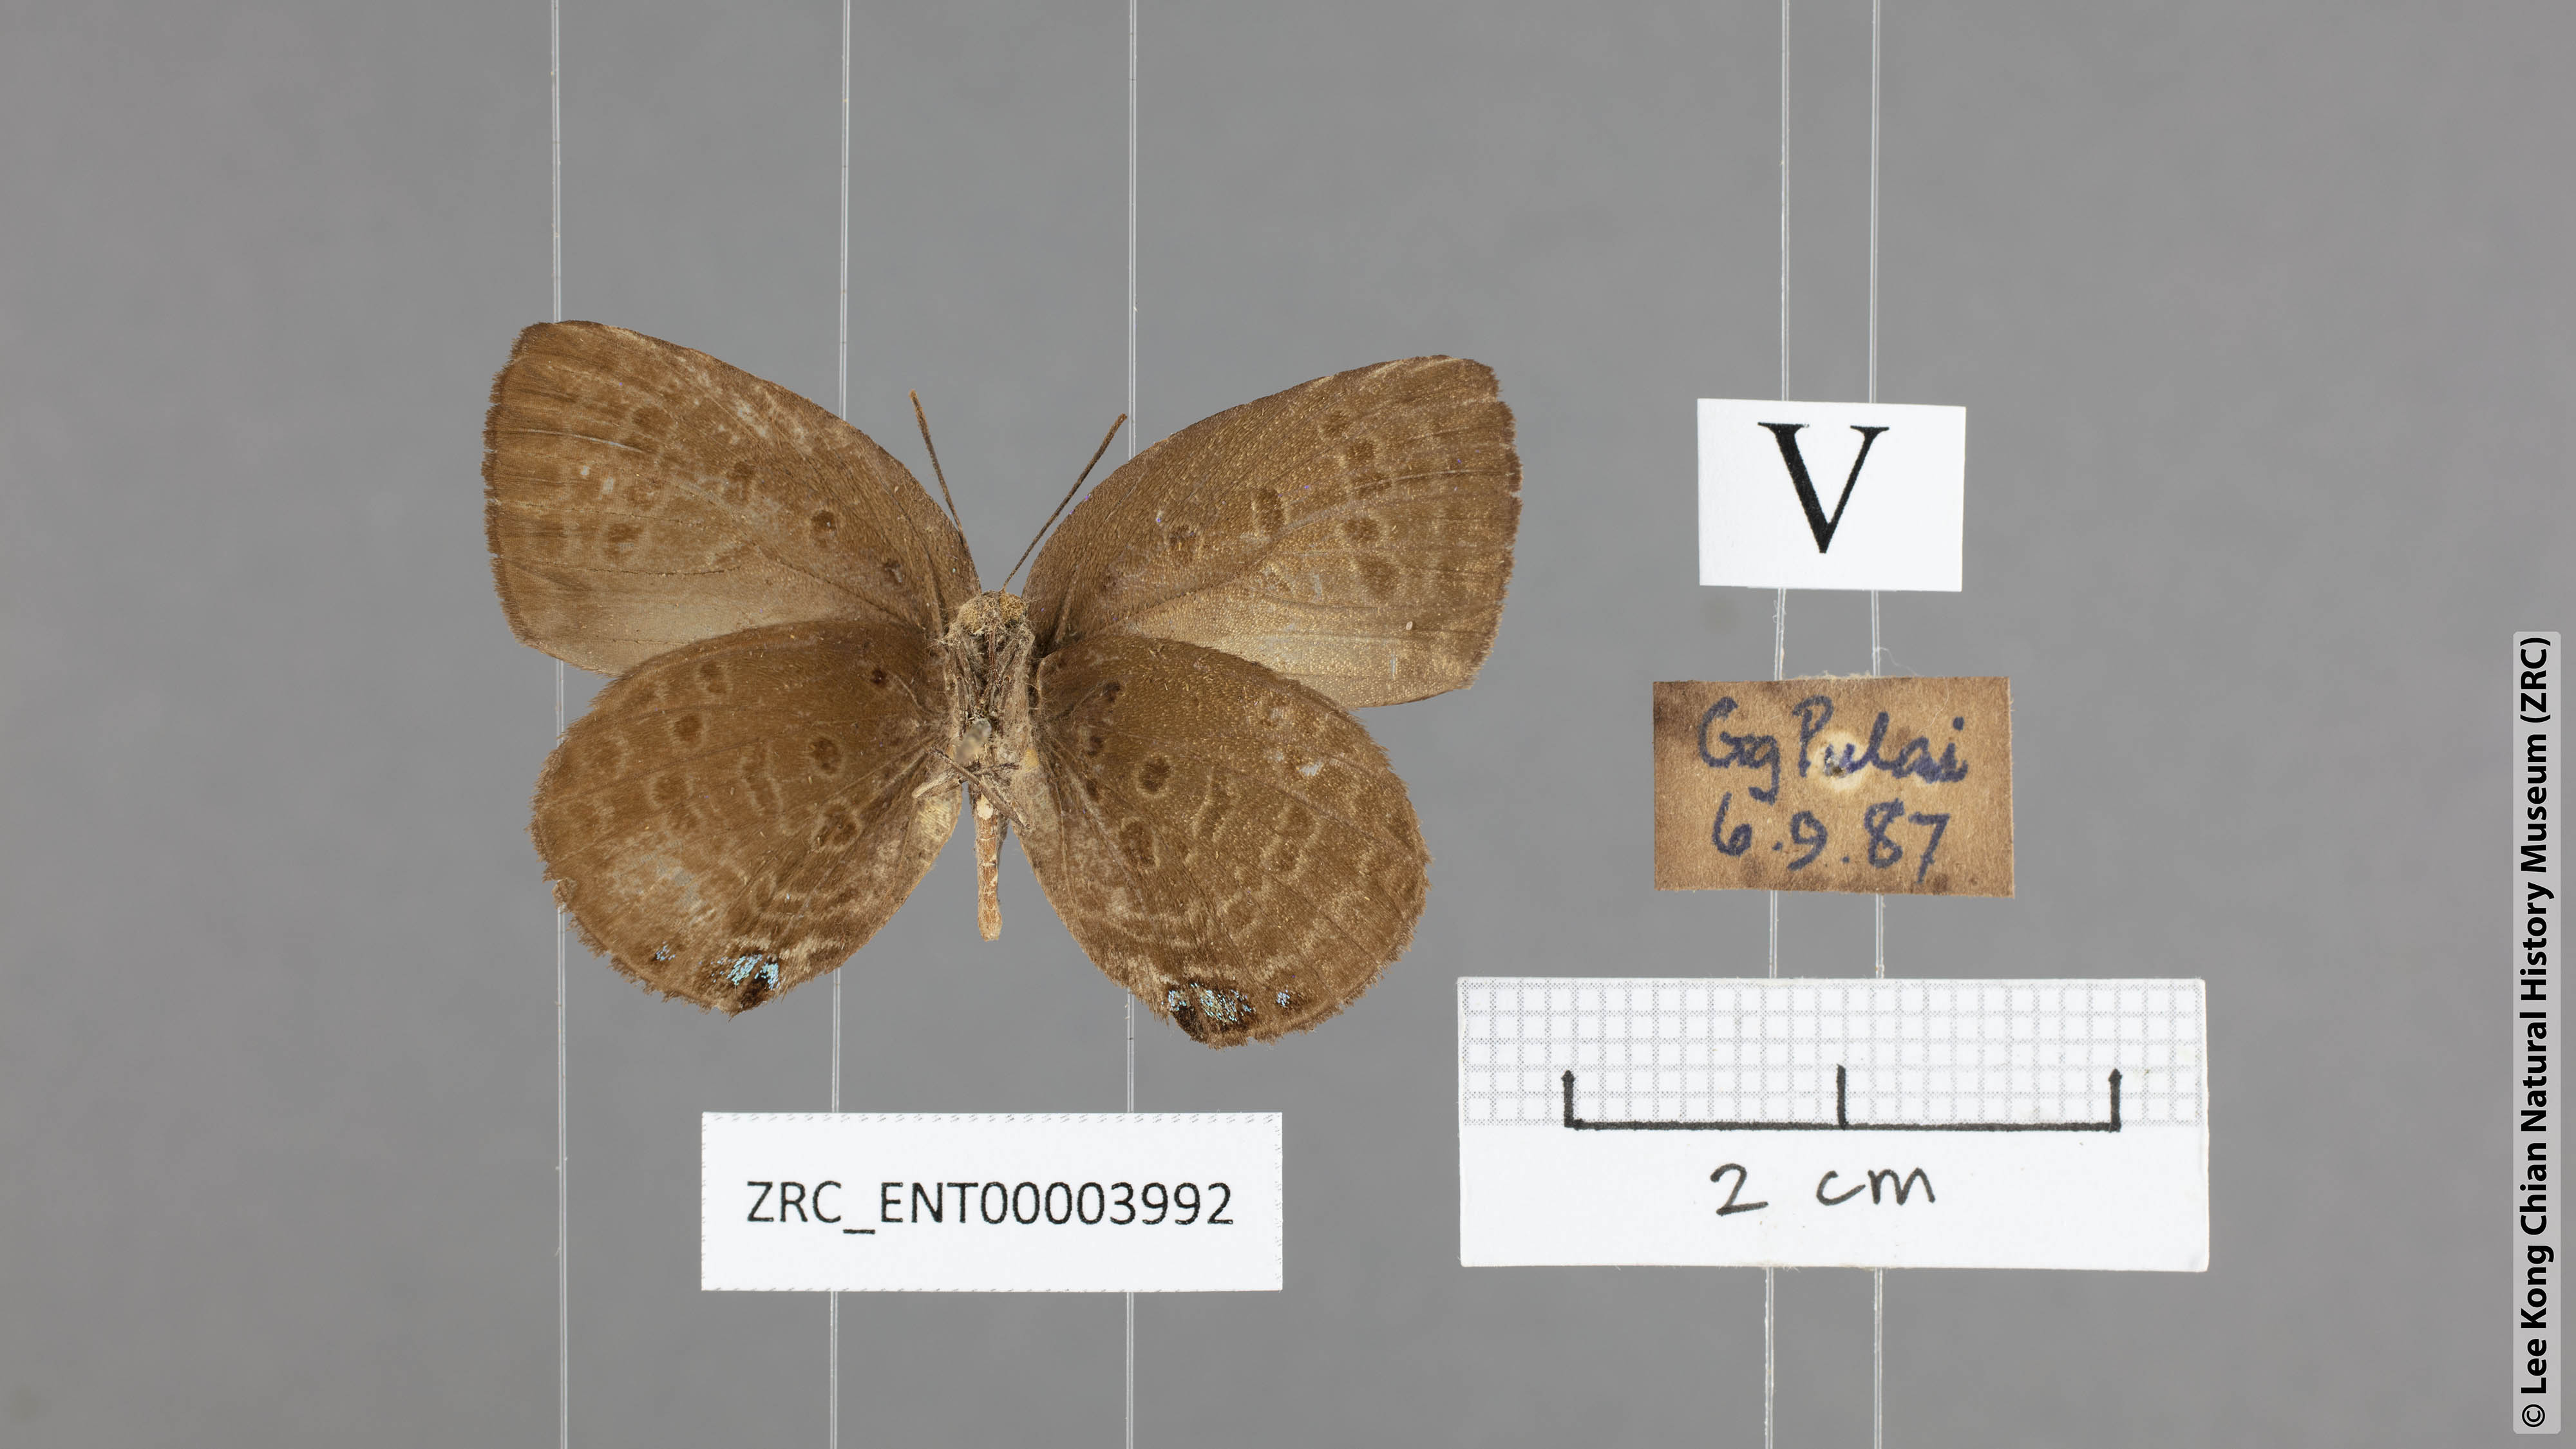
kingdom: Animalia
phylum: Arthropoda
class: Insecta
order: Lepidoptera
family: Lycaenidae
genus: Arhopala
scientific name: Arhopala major
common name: Major yellow oakblue
